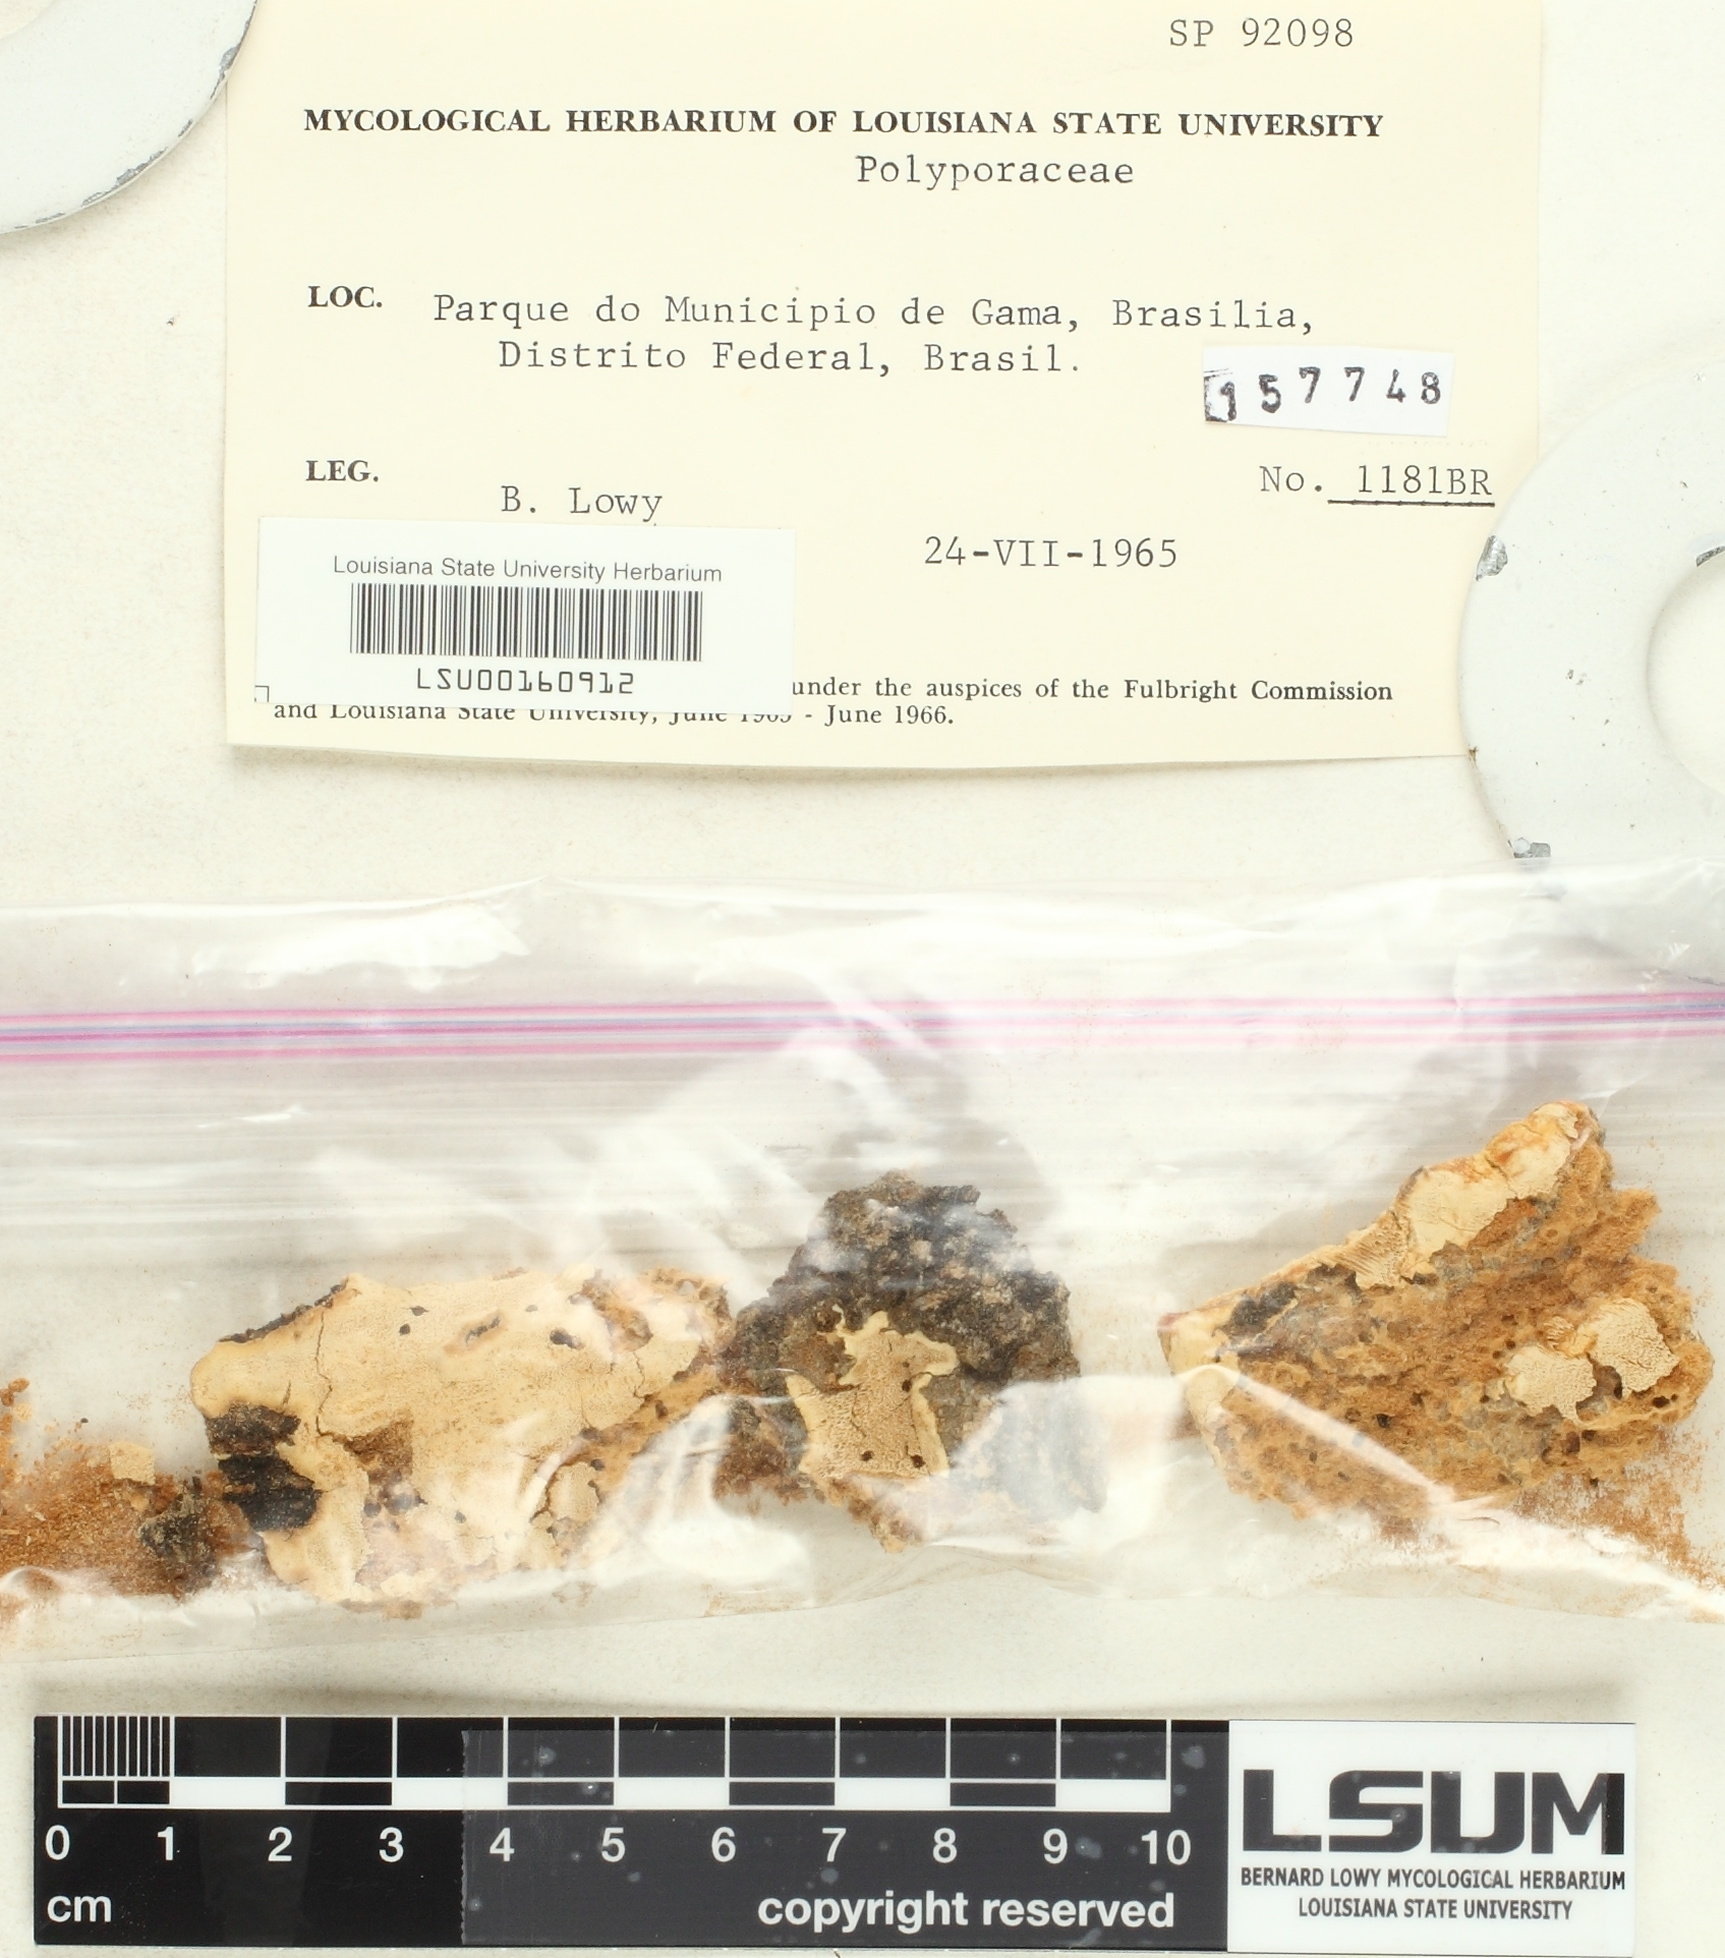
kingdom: Fungi
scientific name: Fungi
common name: Fungi
